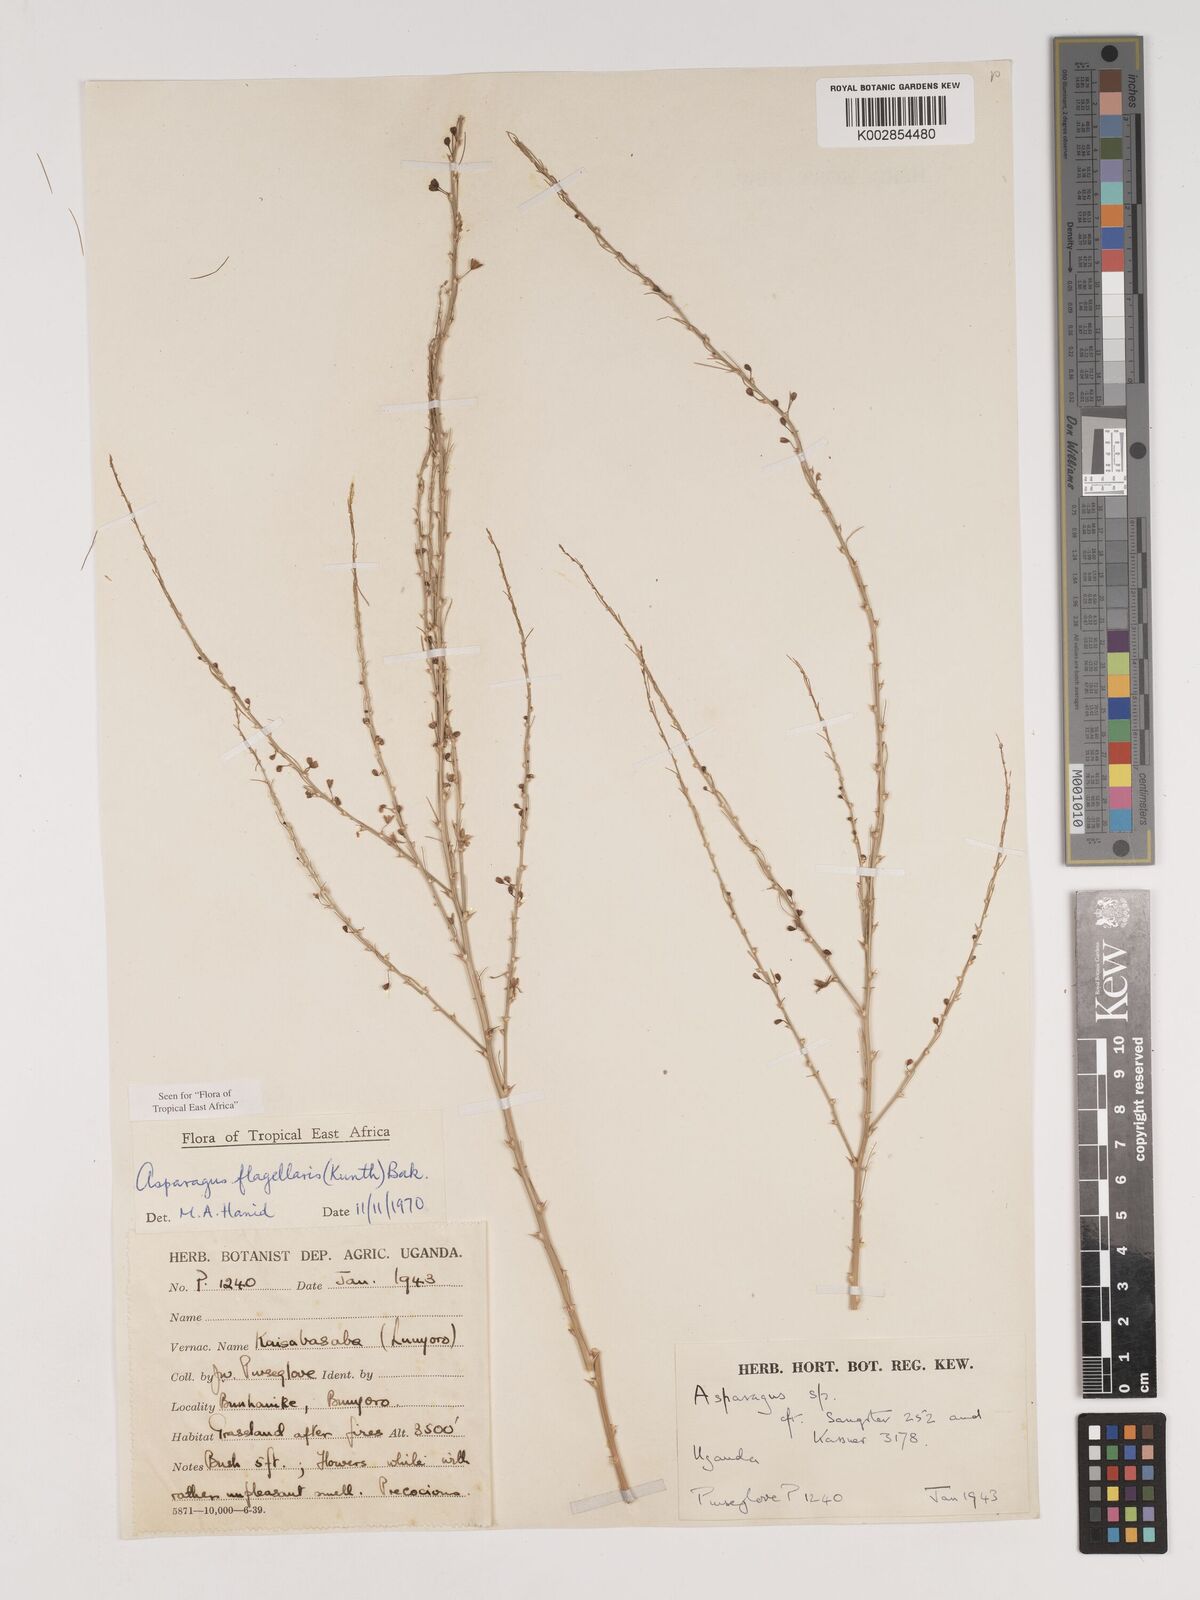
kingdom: Plantae
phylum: Tracheophyta
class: Liliopsida
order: Asparagales
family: Asparagaceae
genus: Asparagus
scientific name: Asparagus flagellaris
